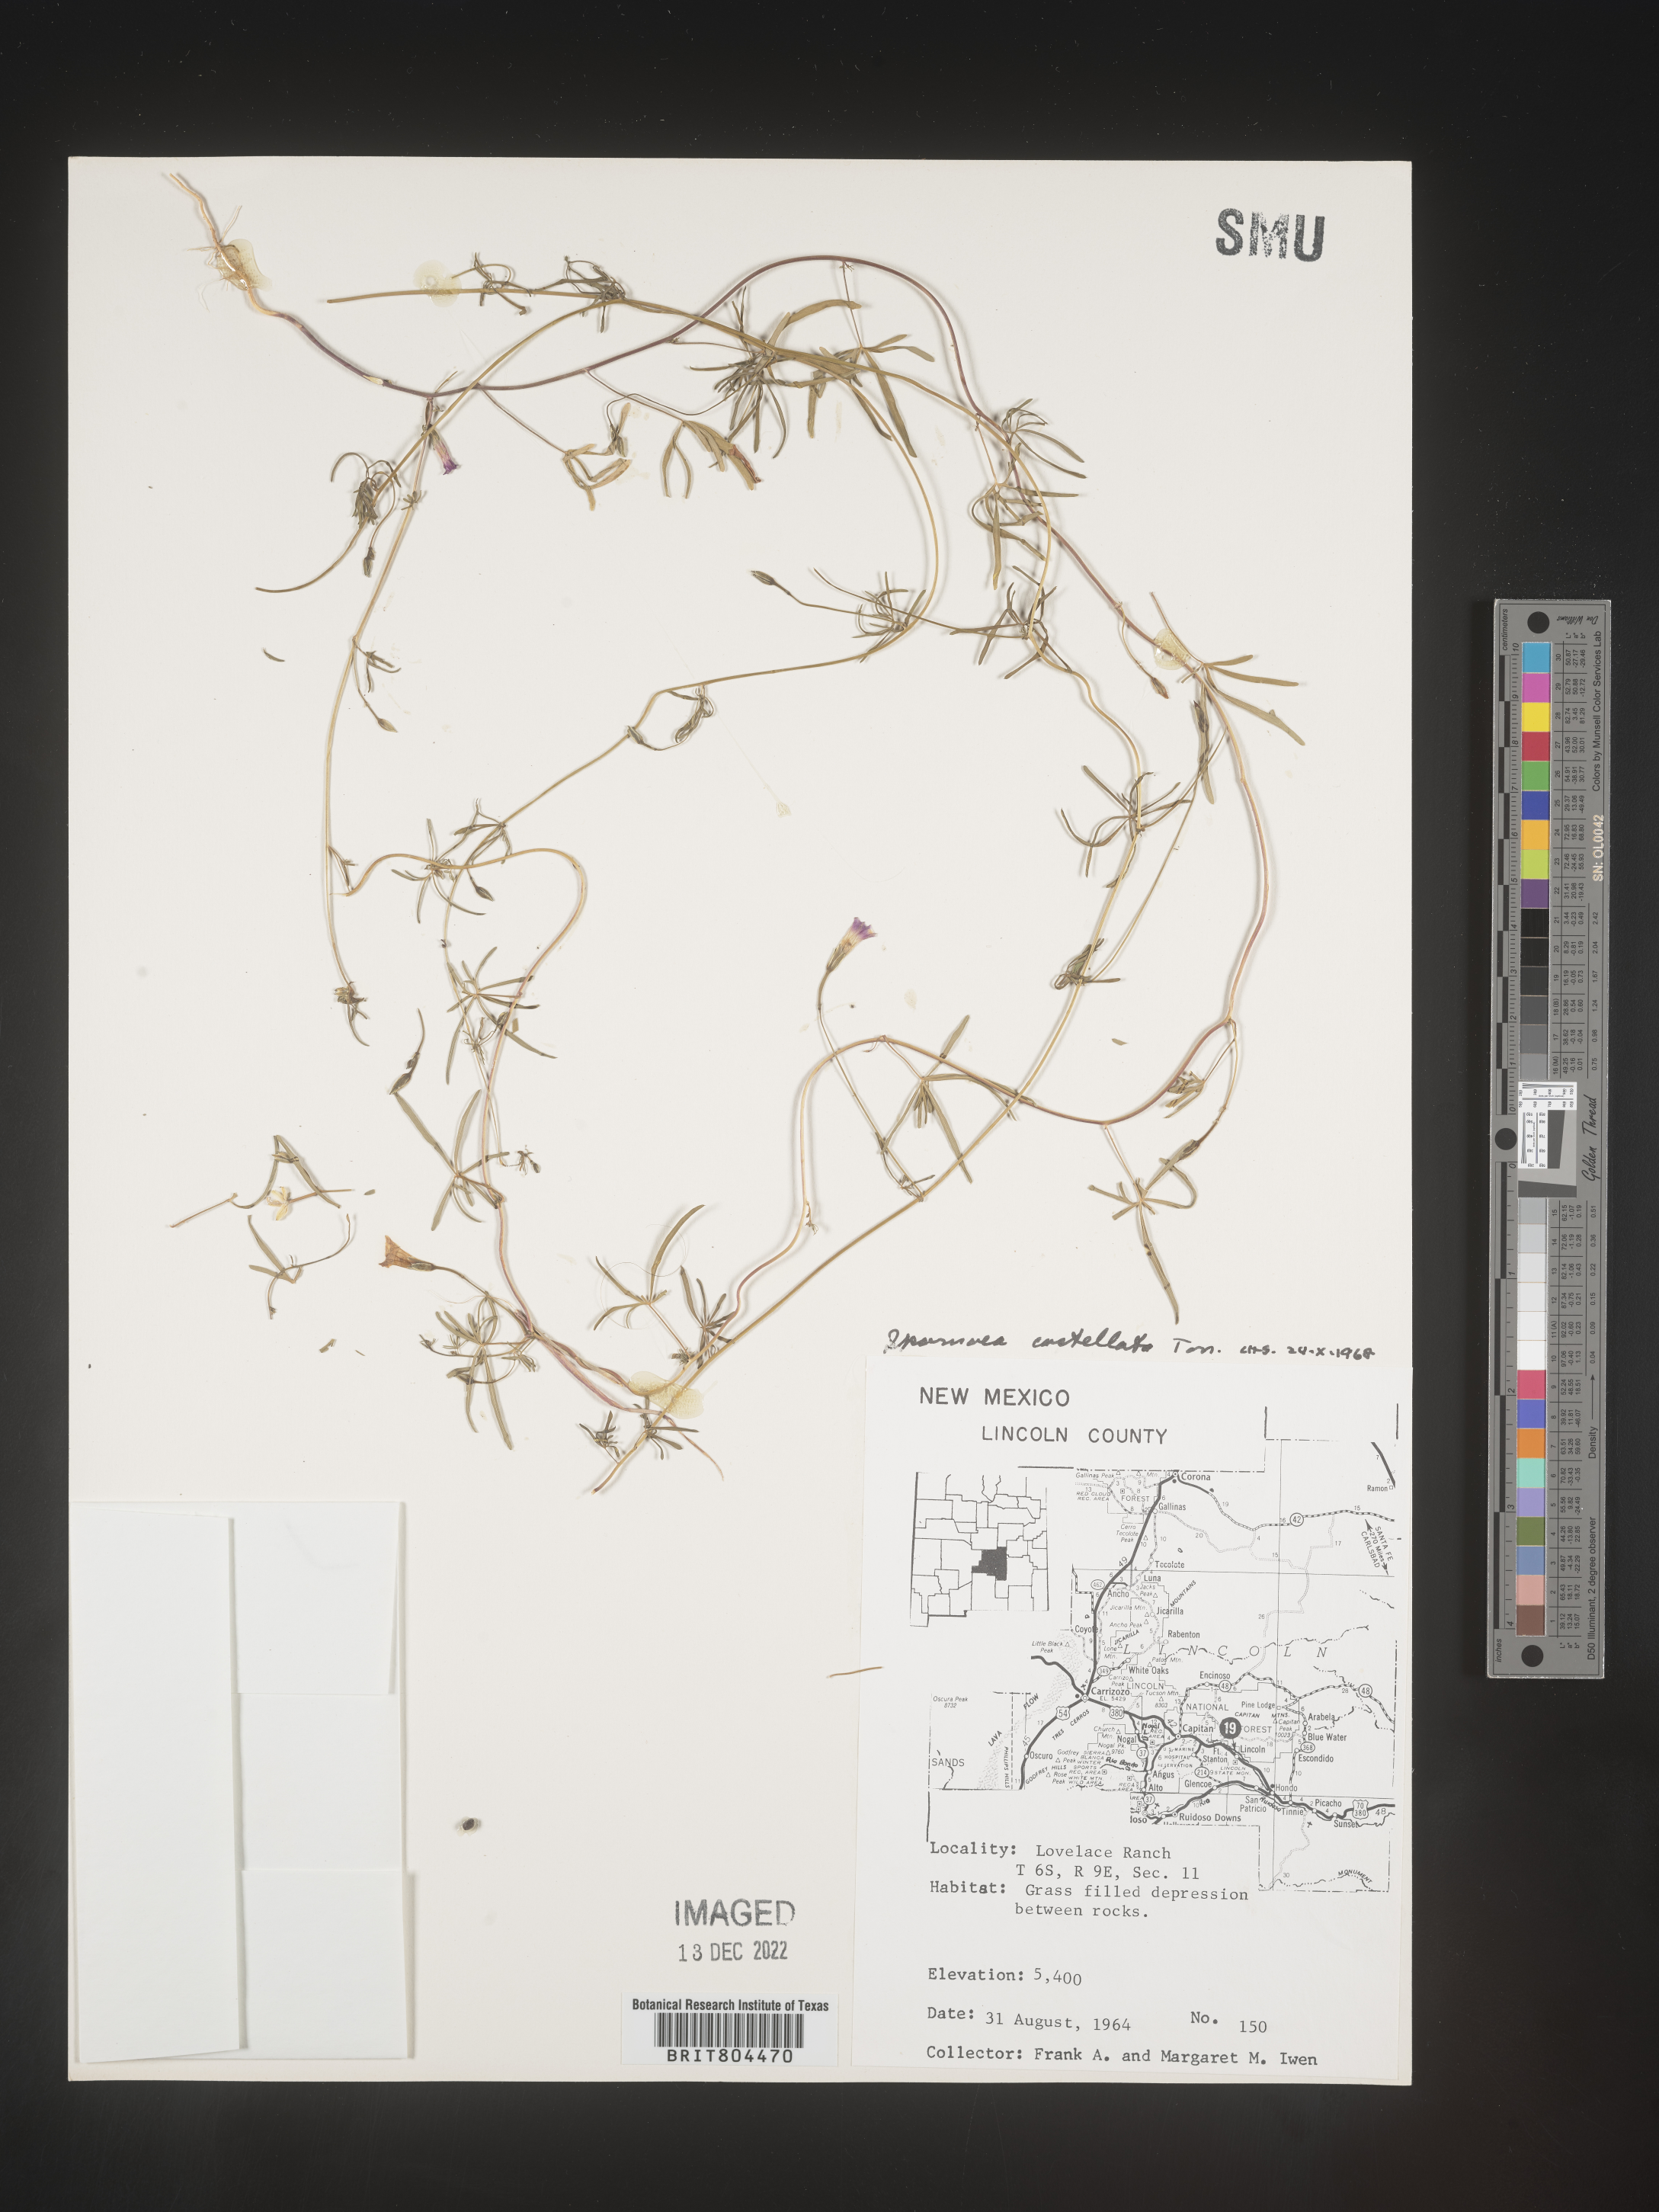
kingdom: Plantae
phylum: Tracheophyta
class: Magnoliopsida
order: Solanales
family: Convolvulaceae
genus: Ipomoea
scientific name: Ipomoea costellata
